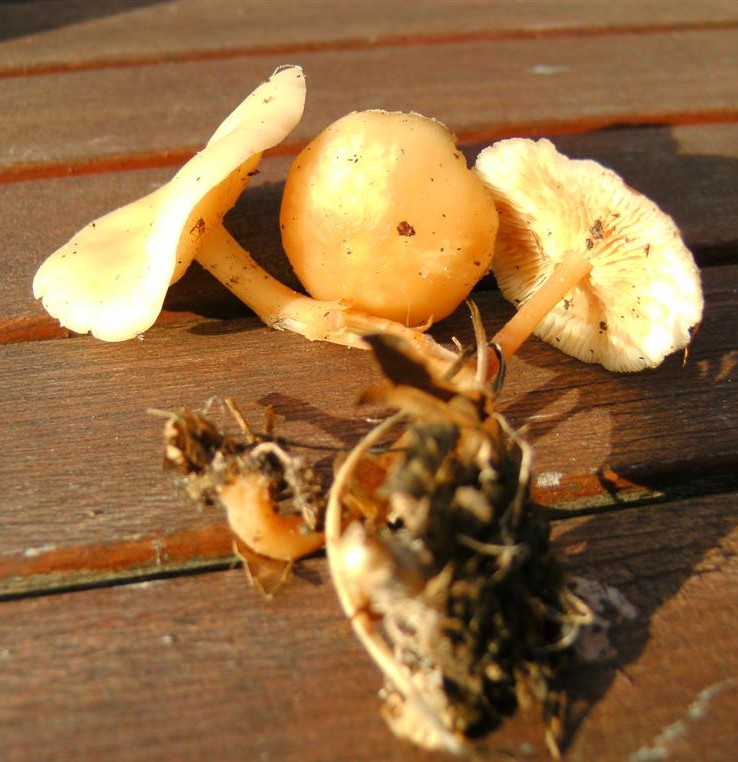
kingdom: Fungi
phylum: Basidiomycota
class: Agaricomycetes
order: Agaricales
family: Omphalotaceae
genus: Gymnopus
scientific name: Gymnopus dryophilus
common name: løv-fladhat
